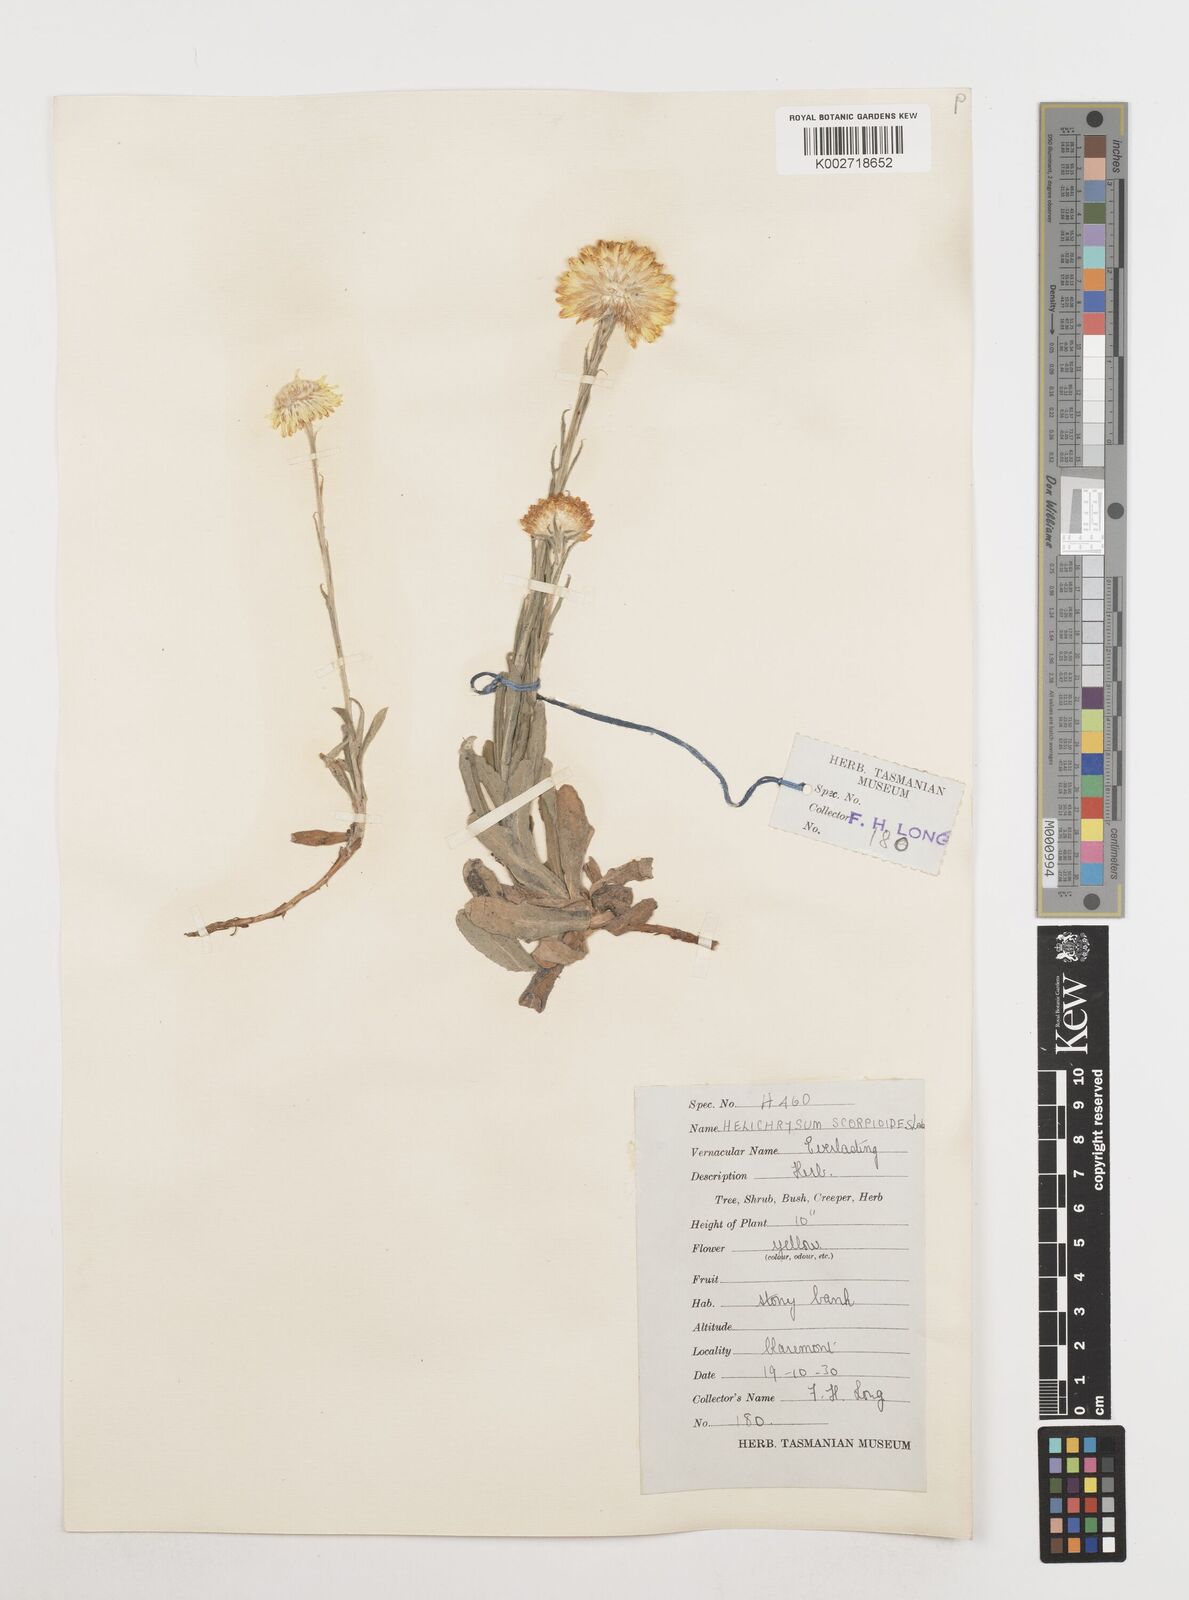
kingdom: Plantae
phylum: Tracheophyta
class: Magnoliopsida
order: Asterales
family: Asteraceae
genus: Coronidium
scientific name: Coronidium scorpioides
